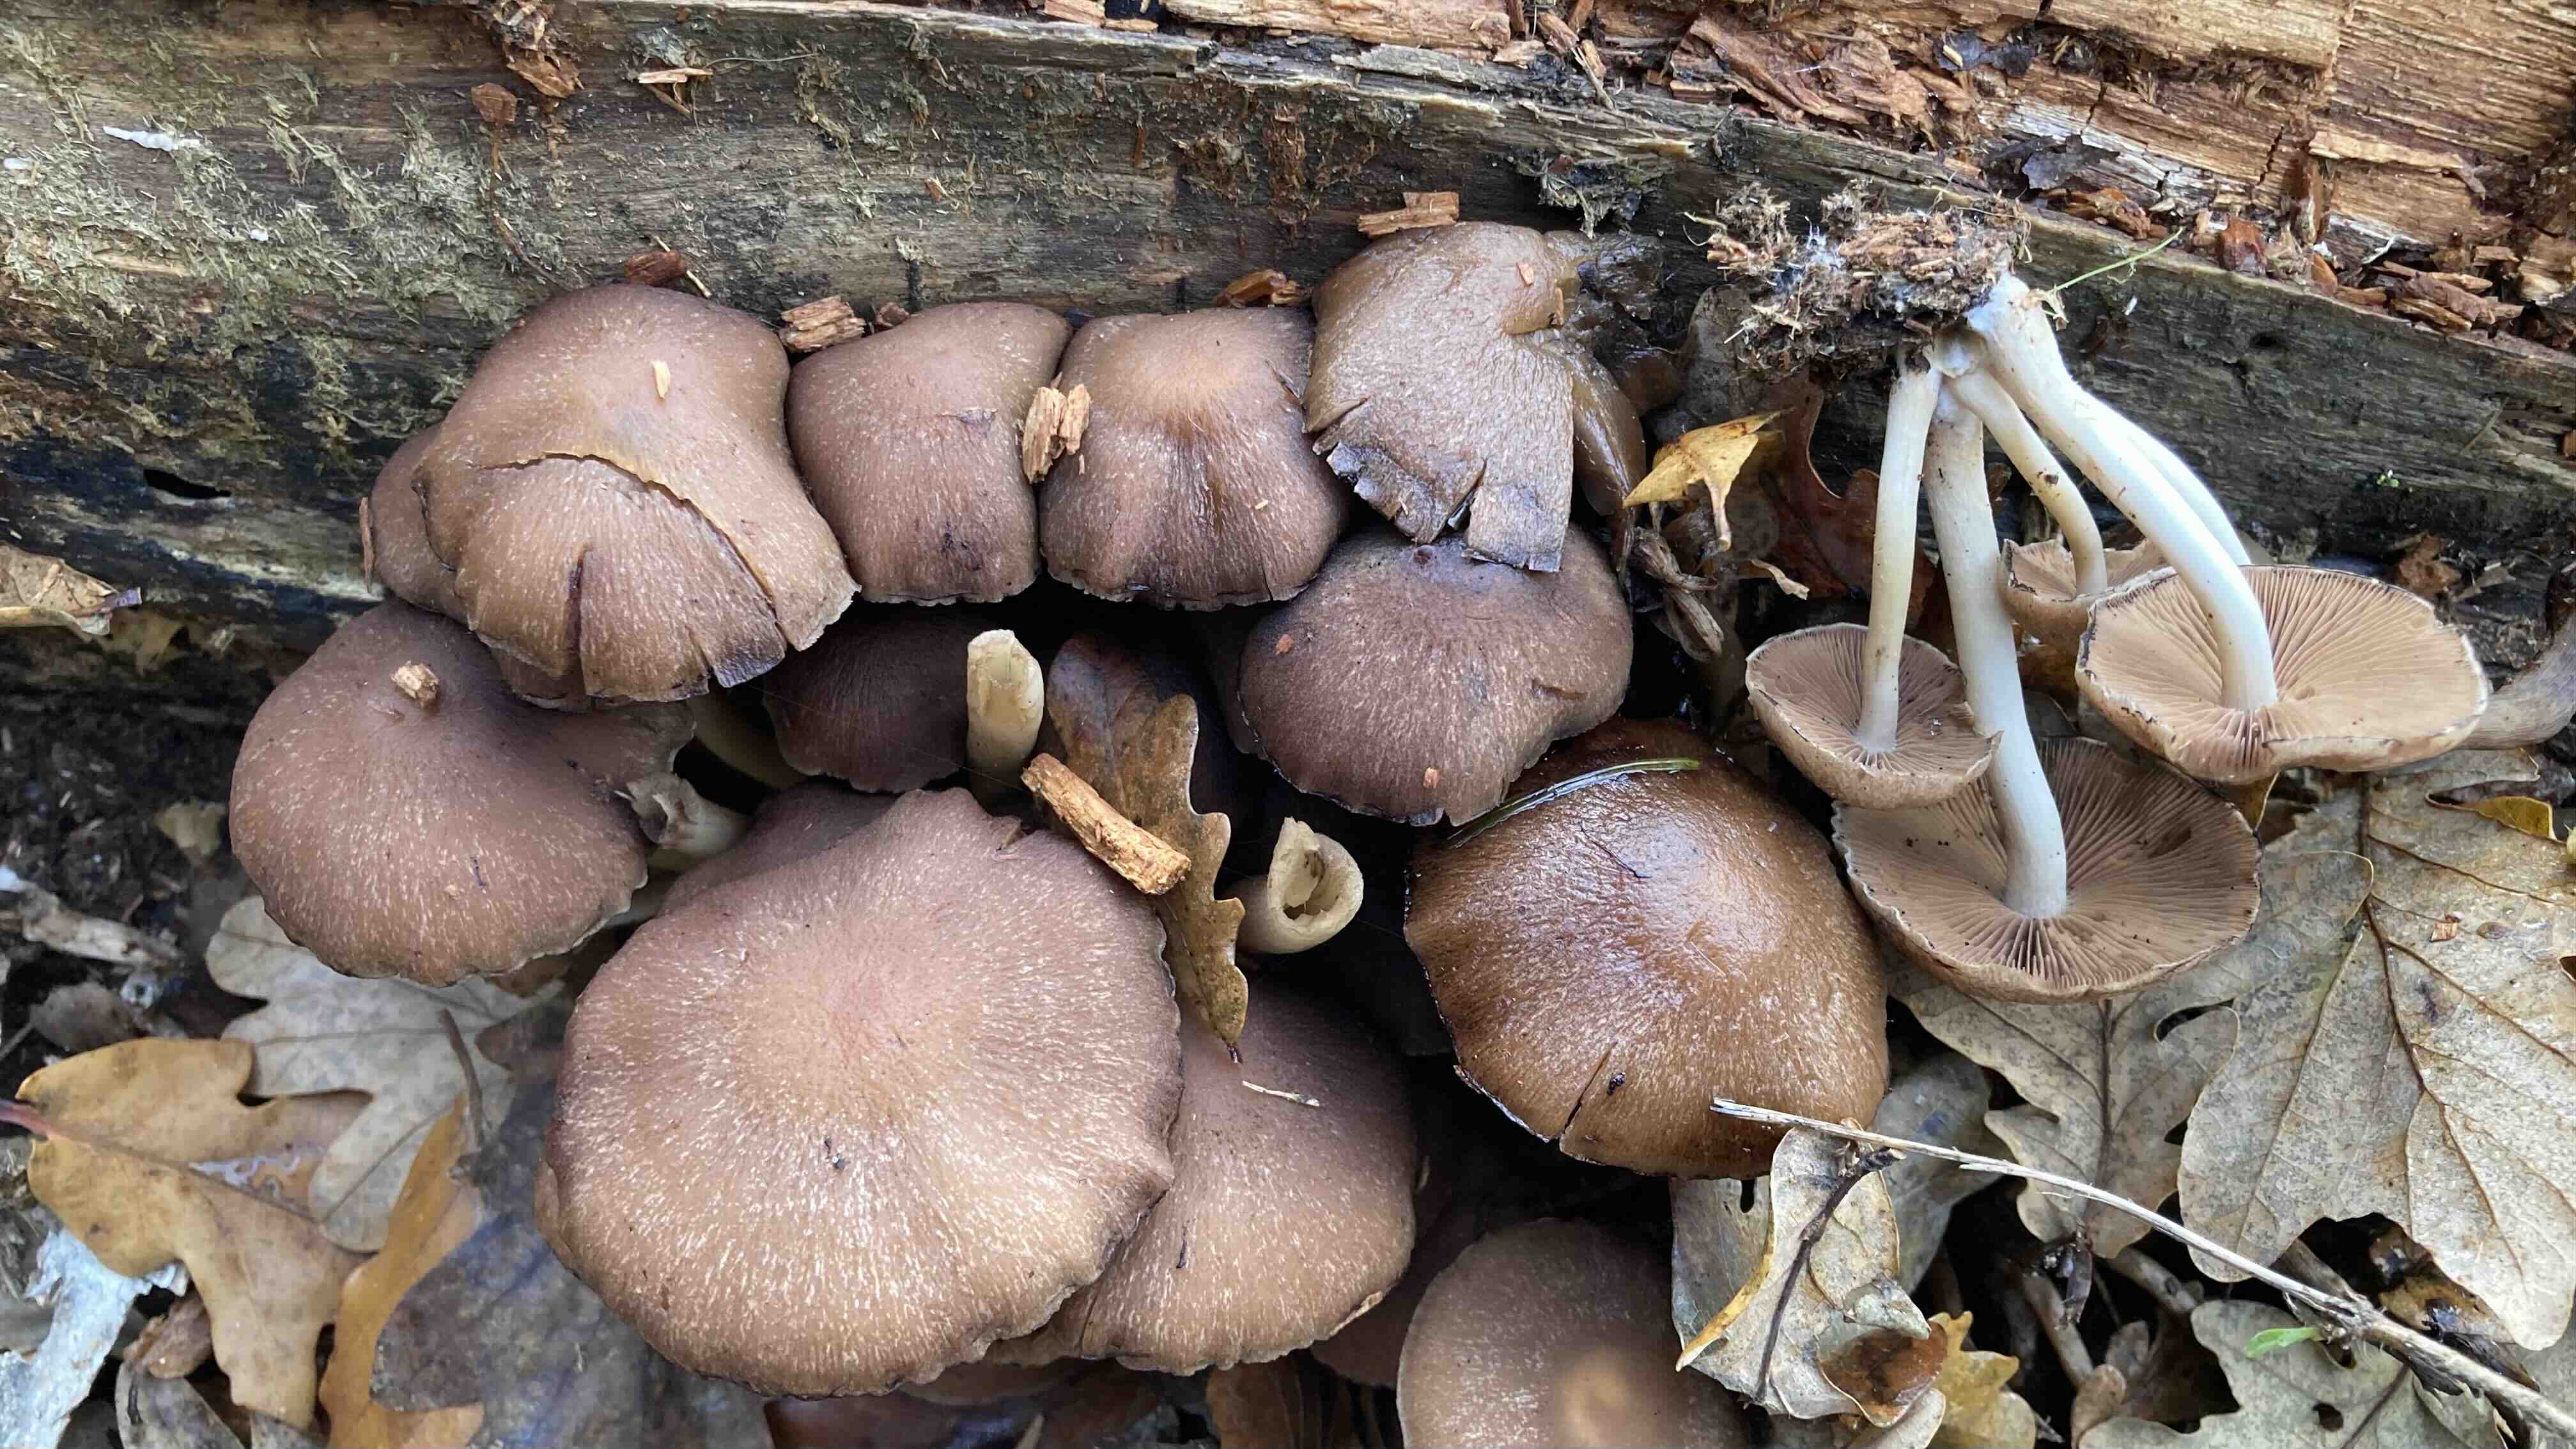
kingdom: Fungi
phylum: Basidiomycota
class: Agaricomycetes
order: Agaricales
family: Psathyrellaceae
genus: Psathyrella
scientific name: Psathyrella piluliformis
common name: lysstokket mørkhat
